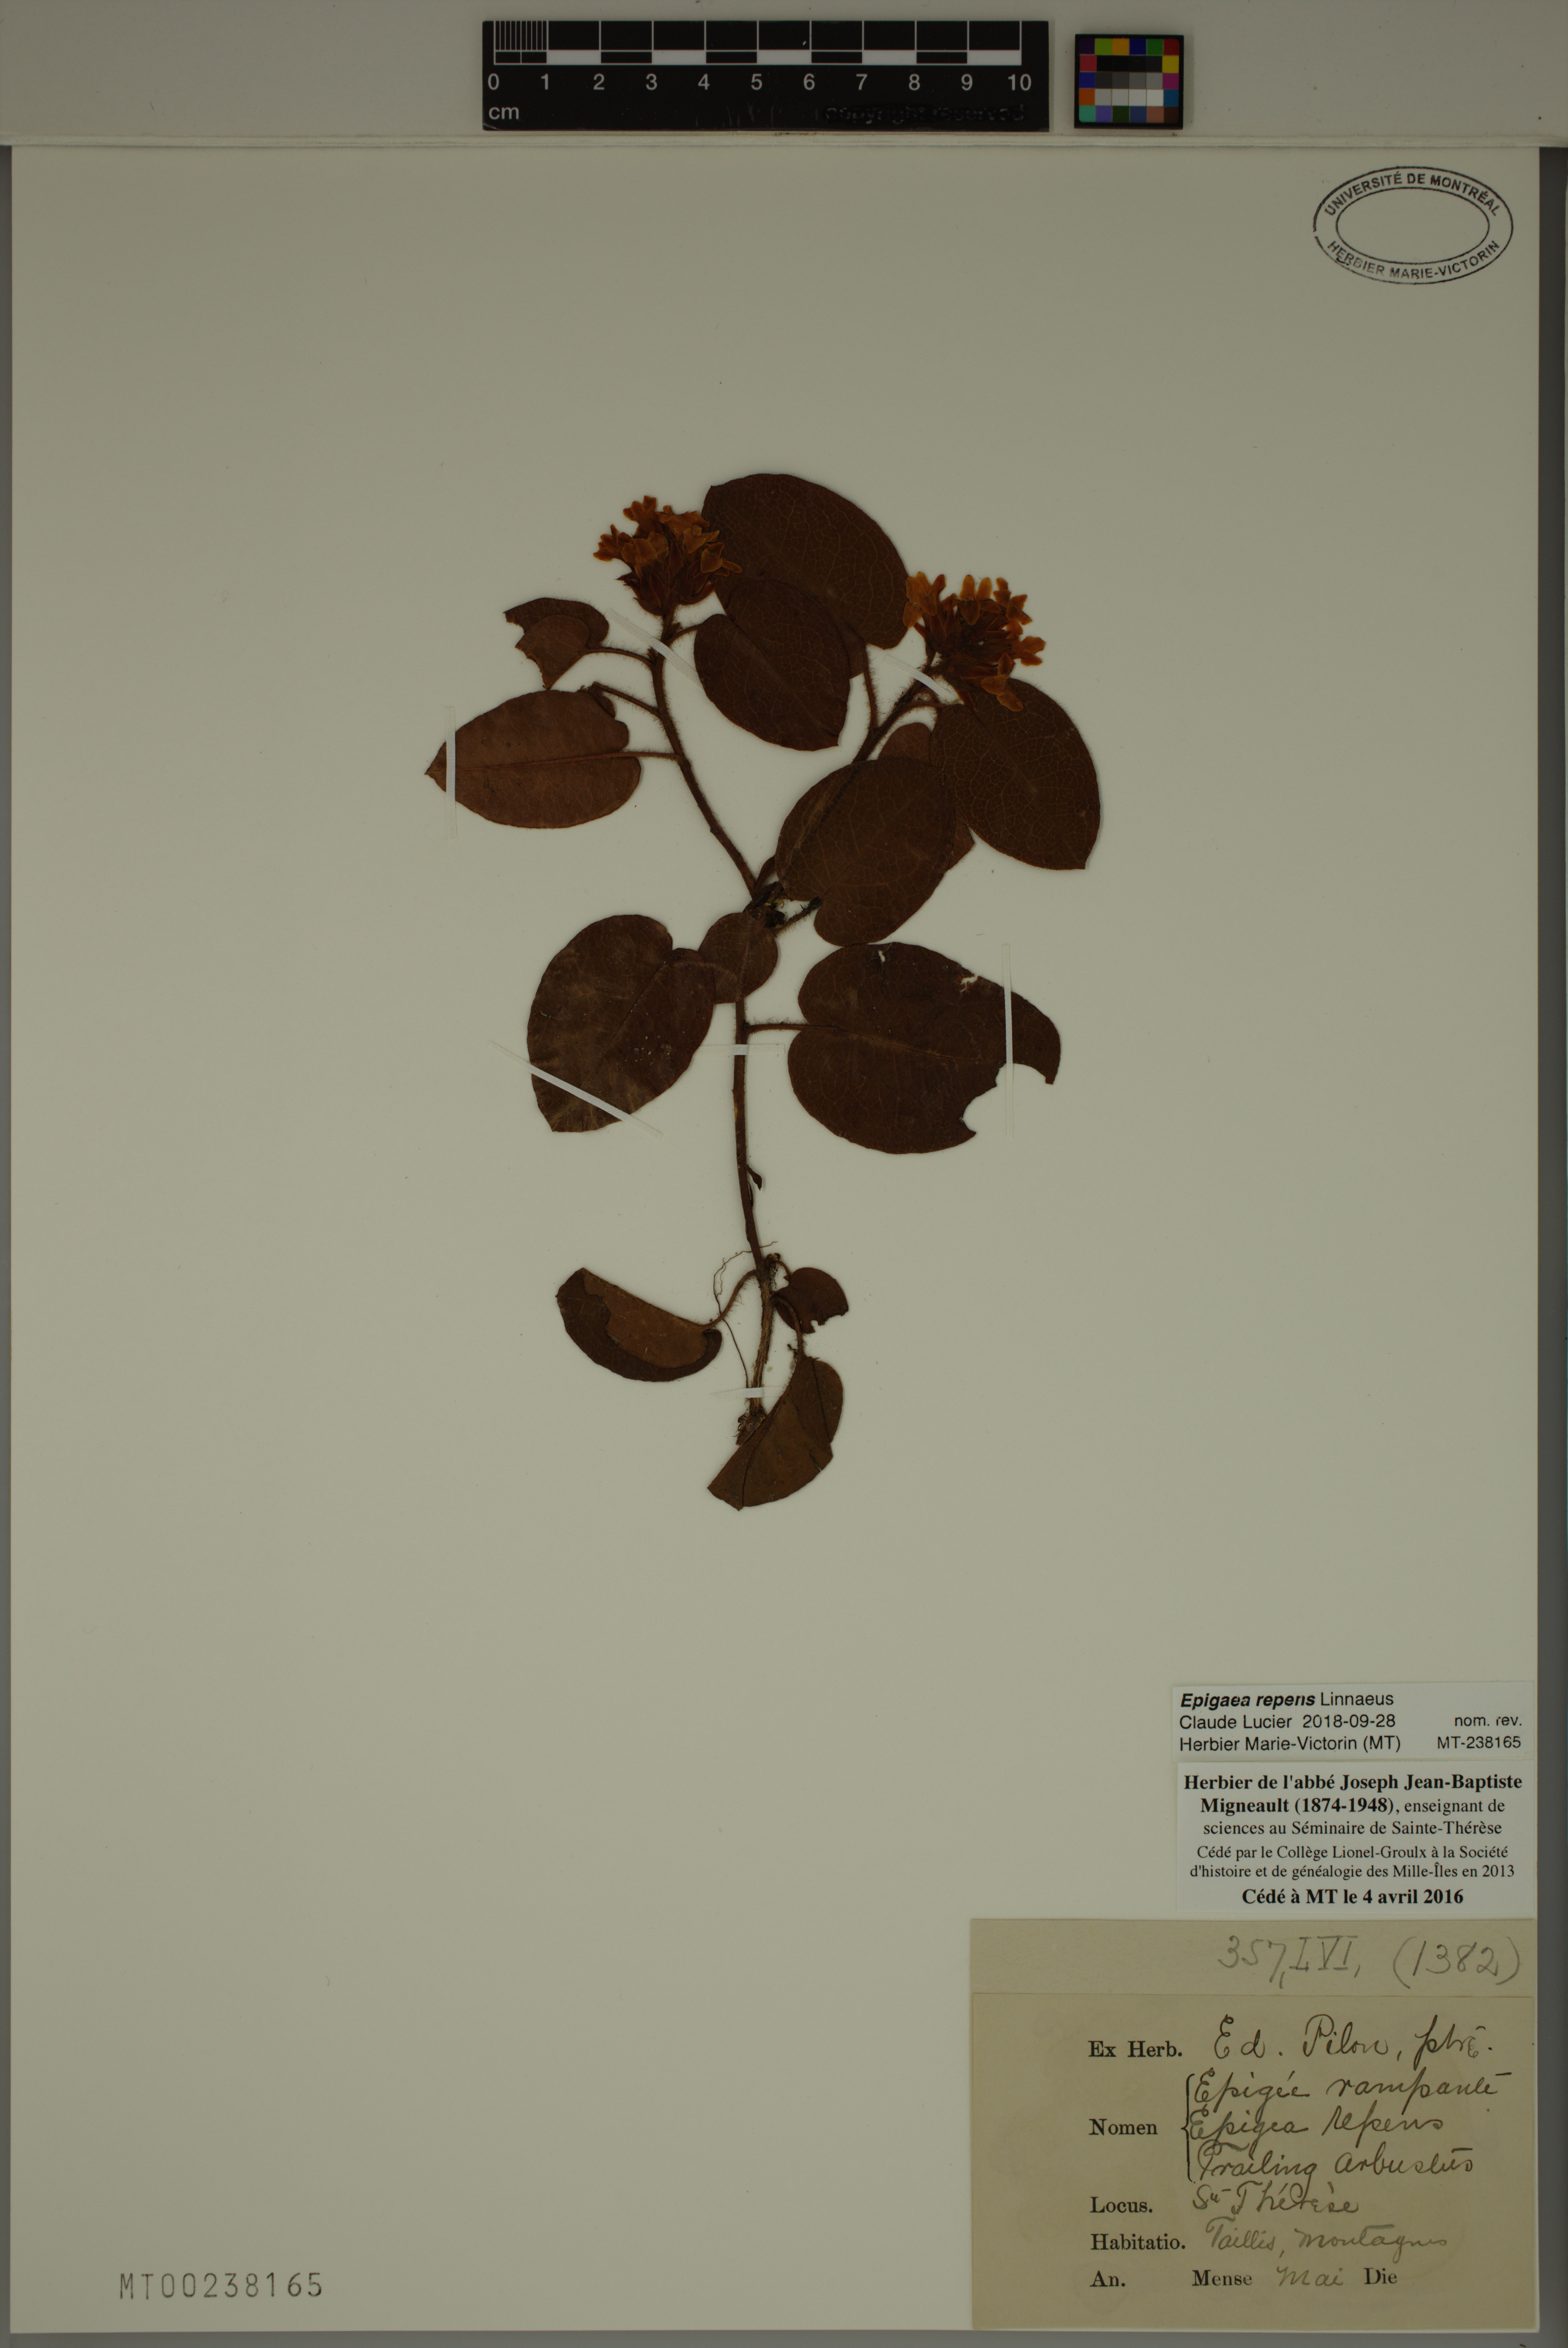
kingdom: Plantae
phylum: Tracheophyta
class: Magnoliopsida
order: Ericales
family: Ericaceae
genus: Epigaea
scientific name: Epigaea repens
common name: Gravelroot
